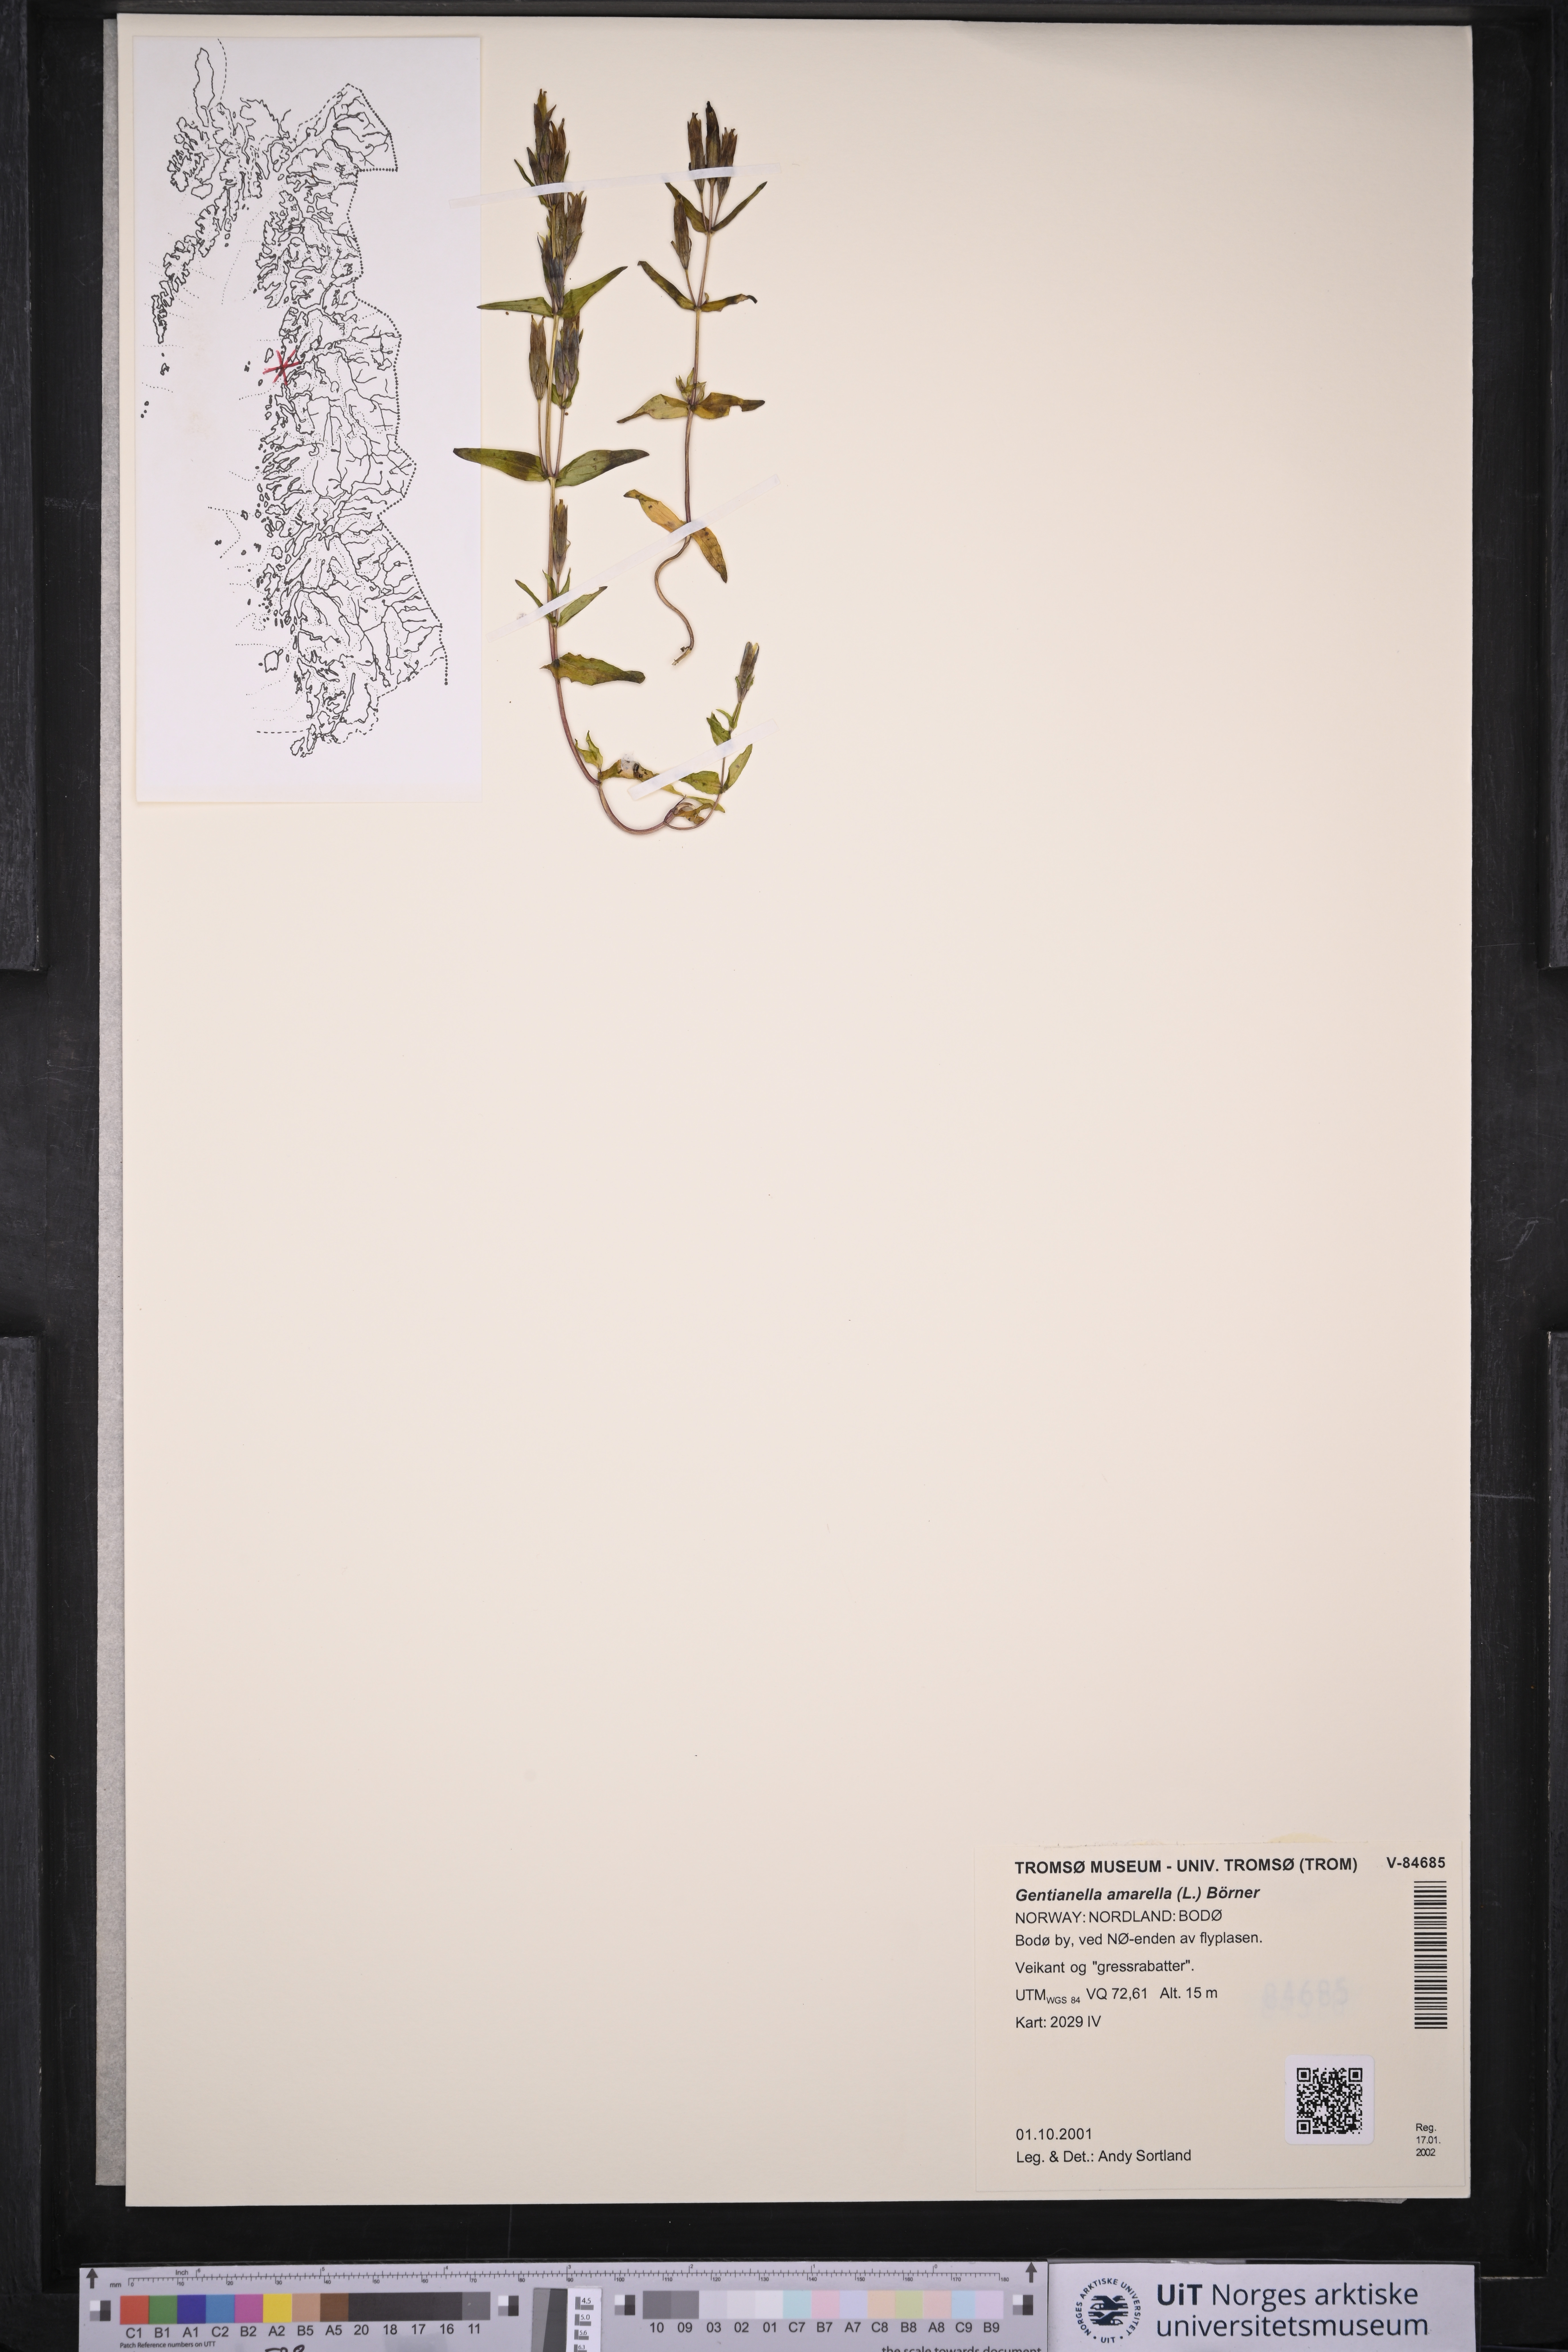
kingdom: Plantae
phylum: Tracheophyta
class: Magnoliopsida
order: Gentianales
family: Gentianaceae
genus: Gentianella
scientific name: Gentianella amarella
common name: Autumn gentian
